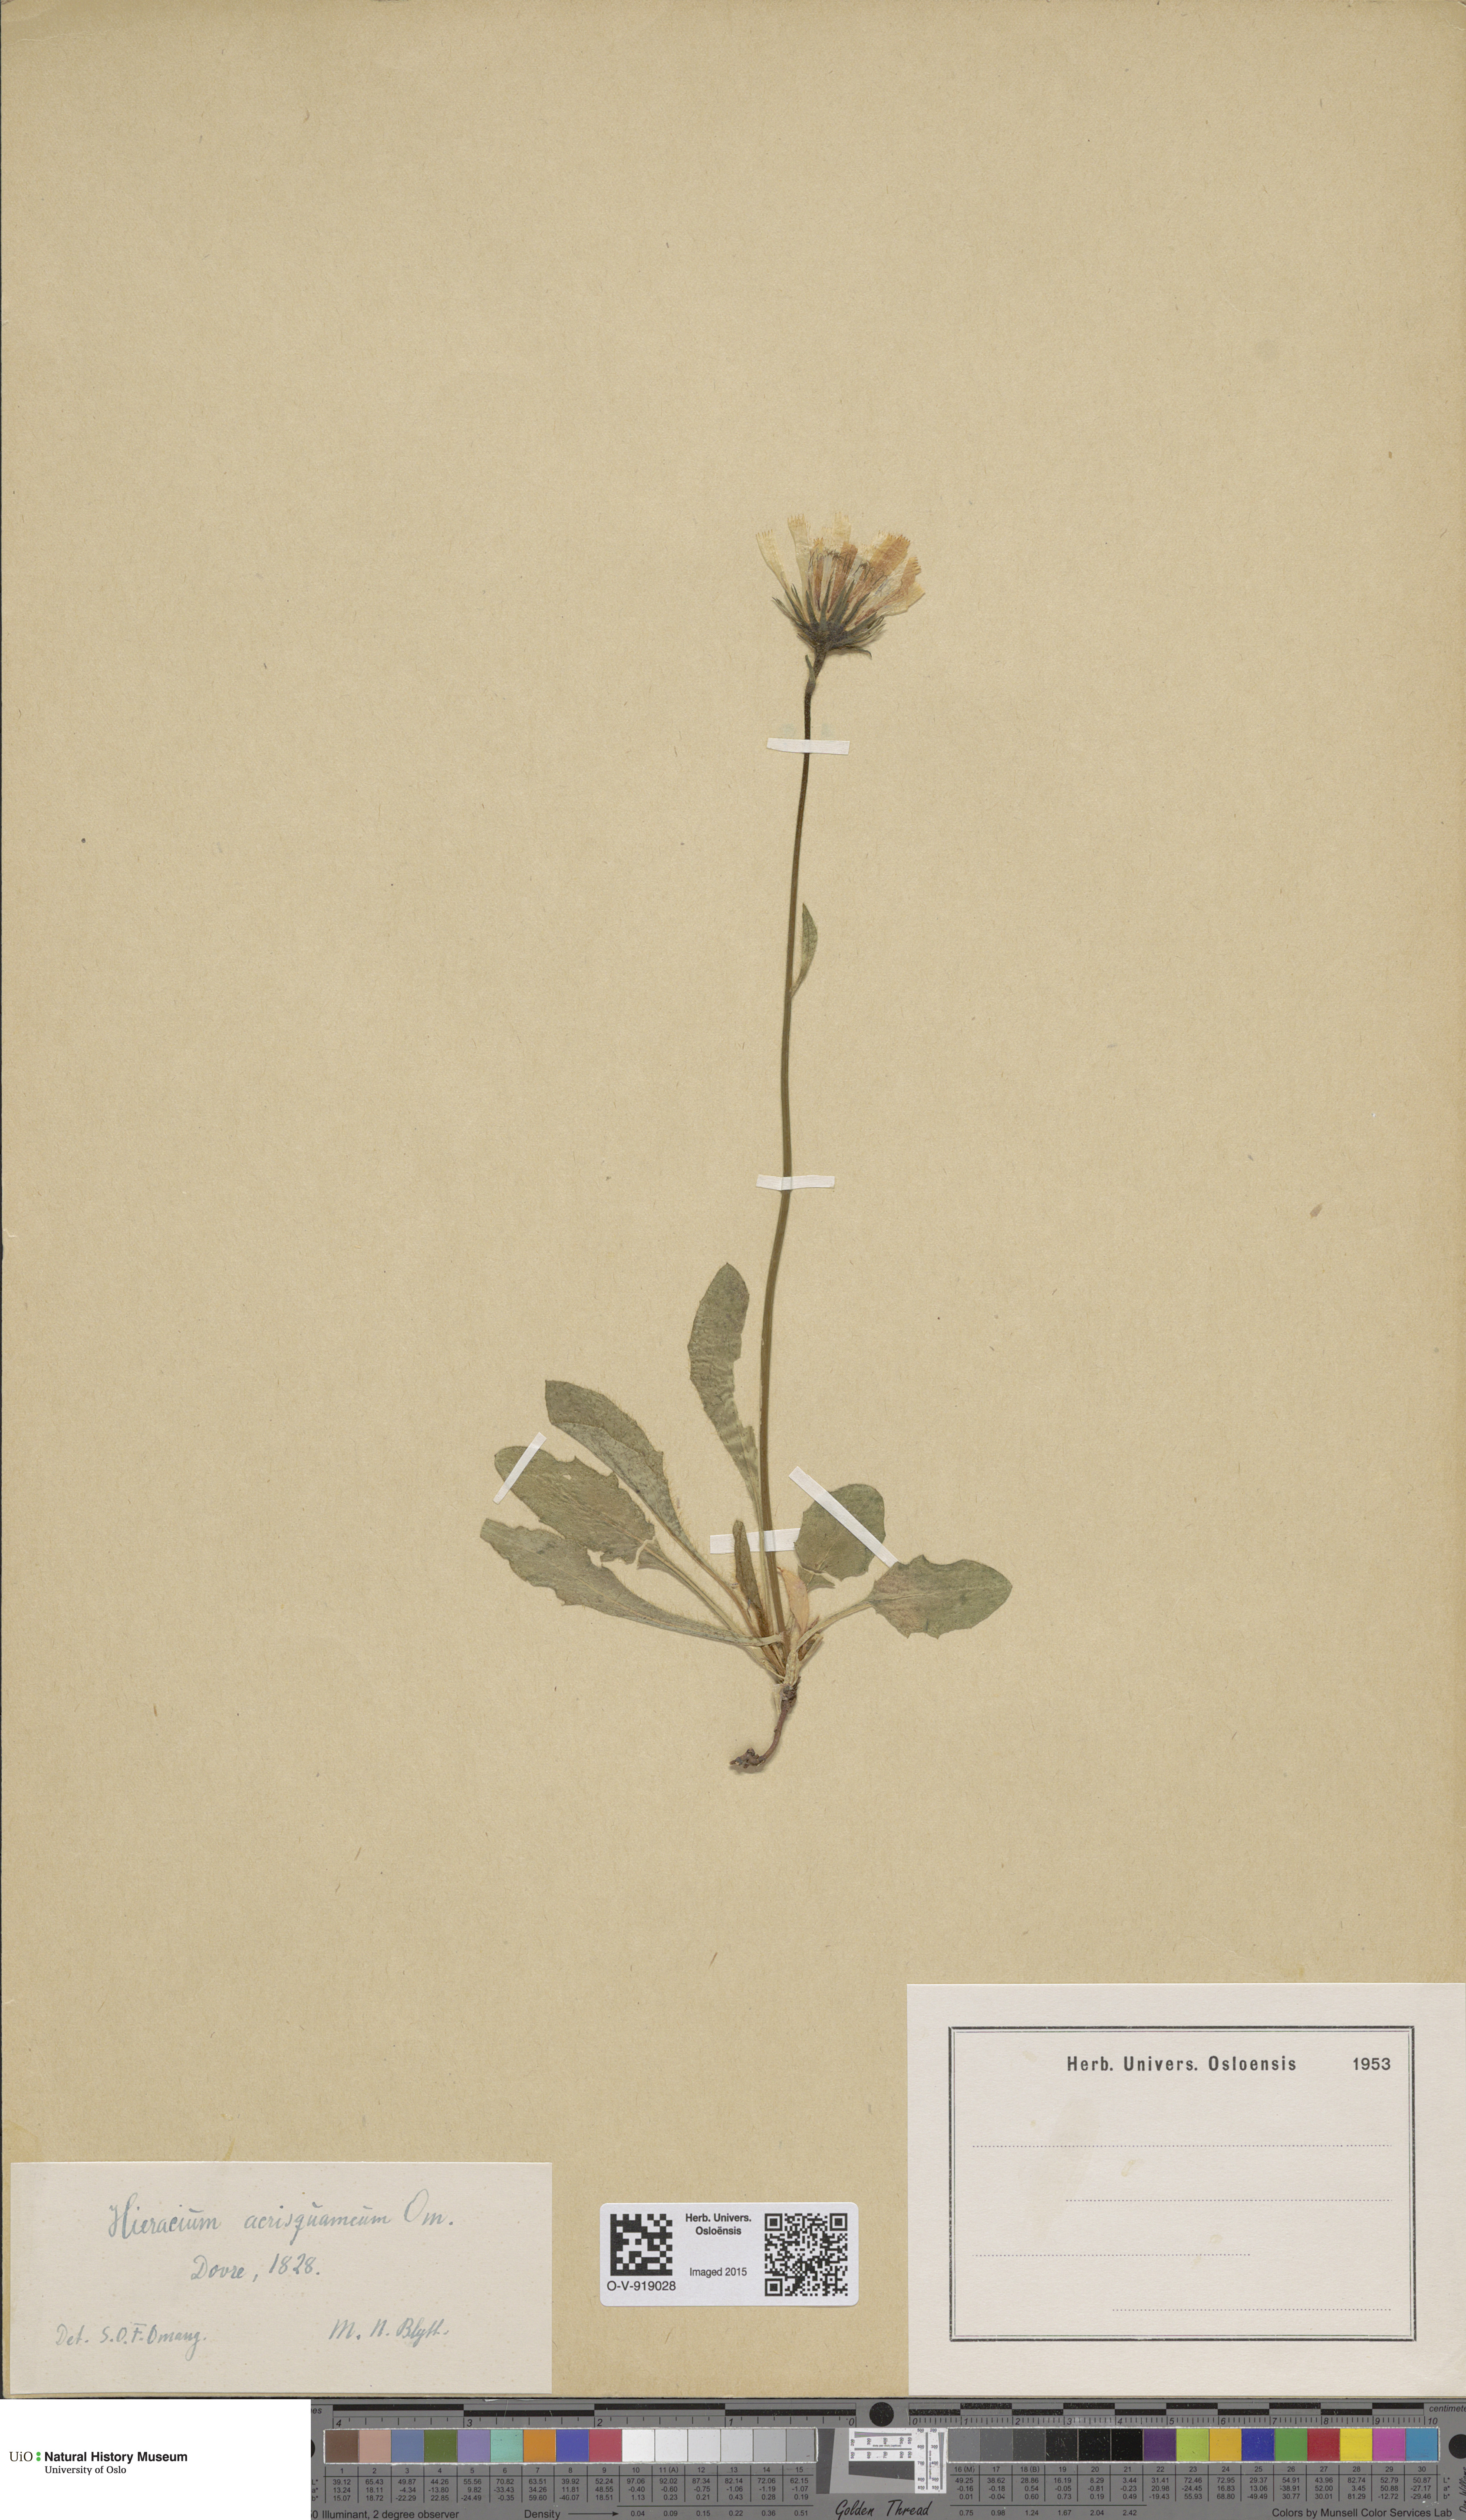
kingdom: Plantae
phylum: Tracheophyta
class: Magnoliopsida
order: Asterales
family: Asteraceae
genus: Hieracium
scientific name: Hieracium
